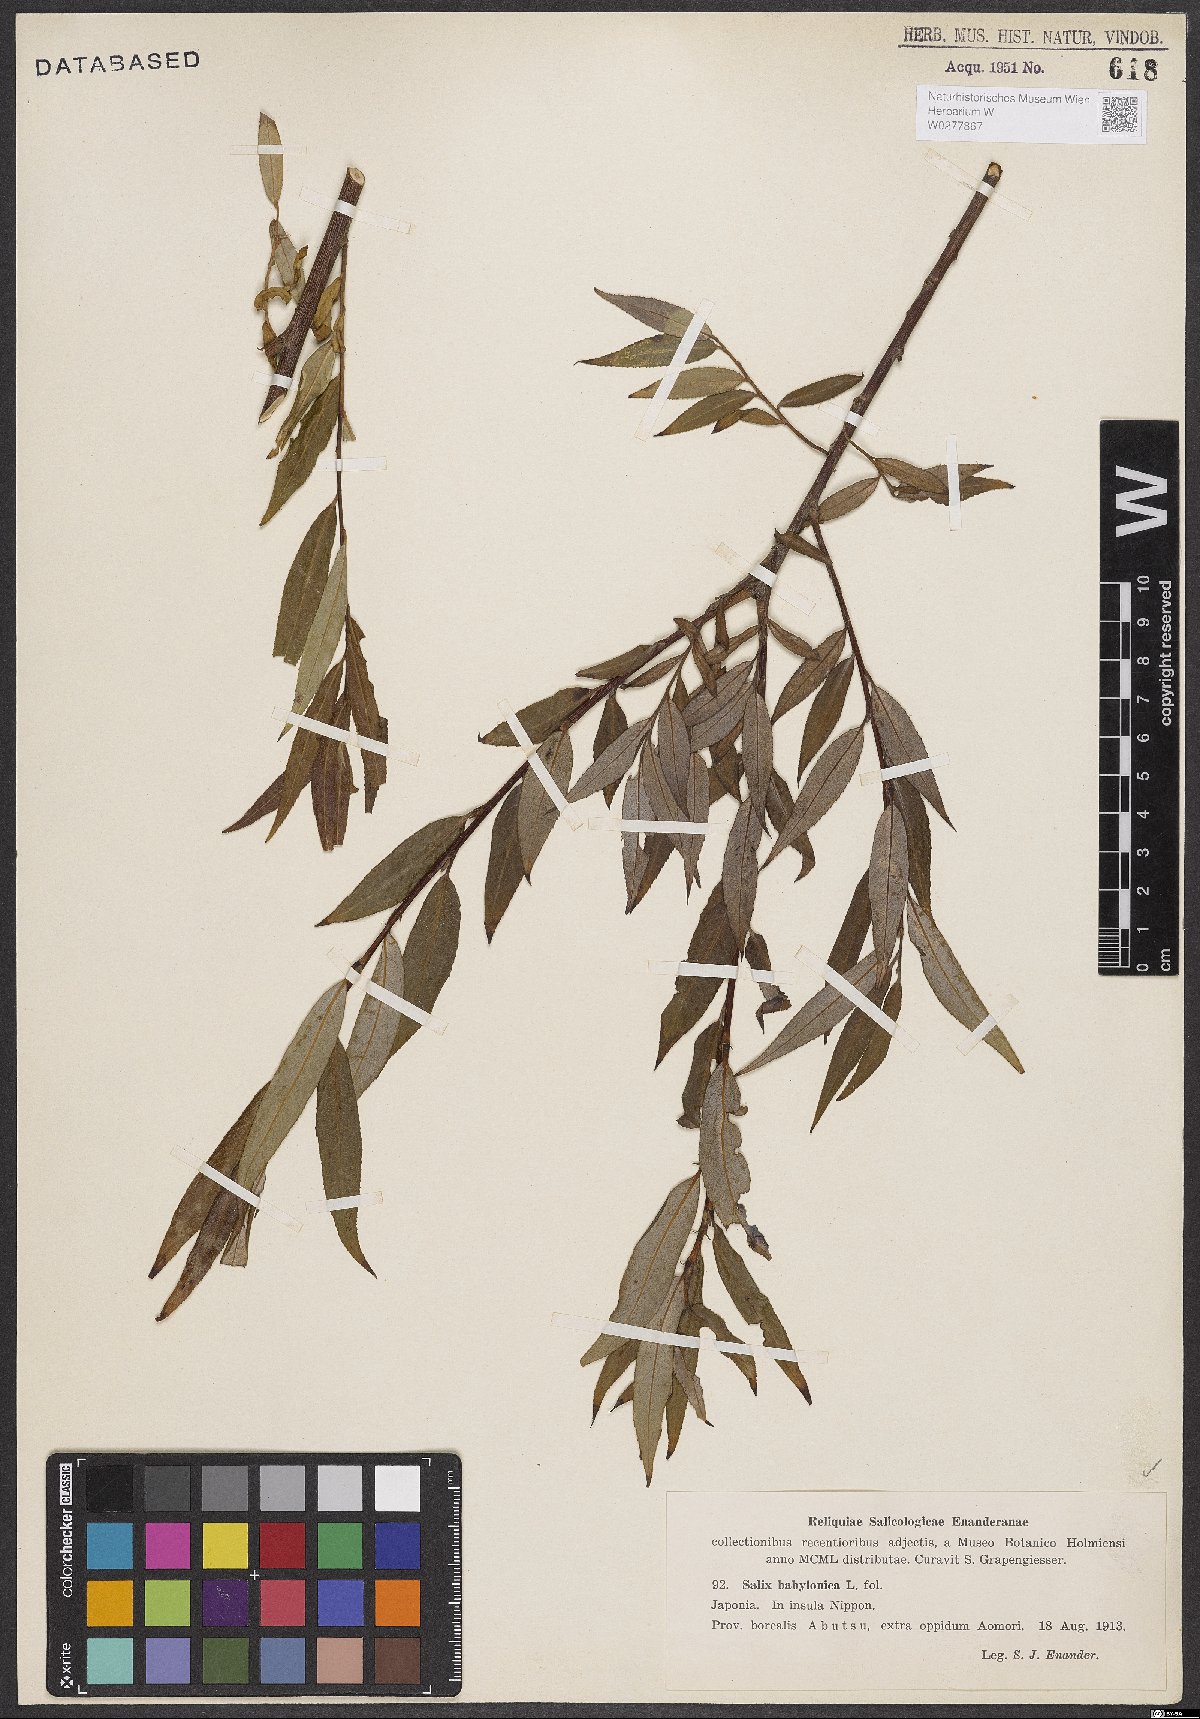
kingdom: Plantae
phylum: Tracheophyta
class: Magnoliopsida
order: Malpighiales
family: Salicaceae
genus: Salix
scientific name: Salix babylonica
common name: Weeping willow
